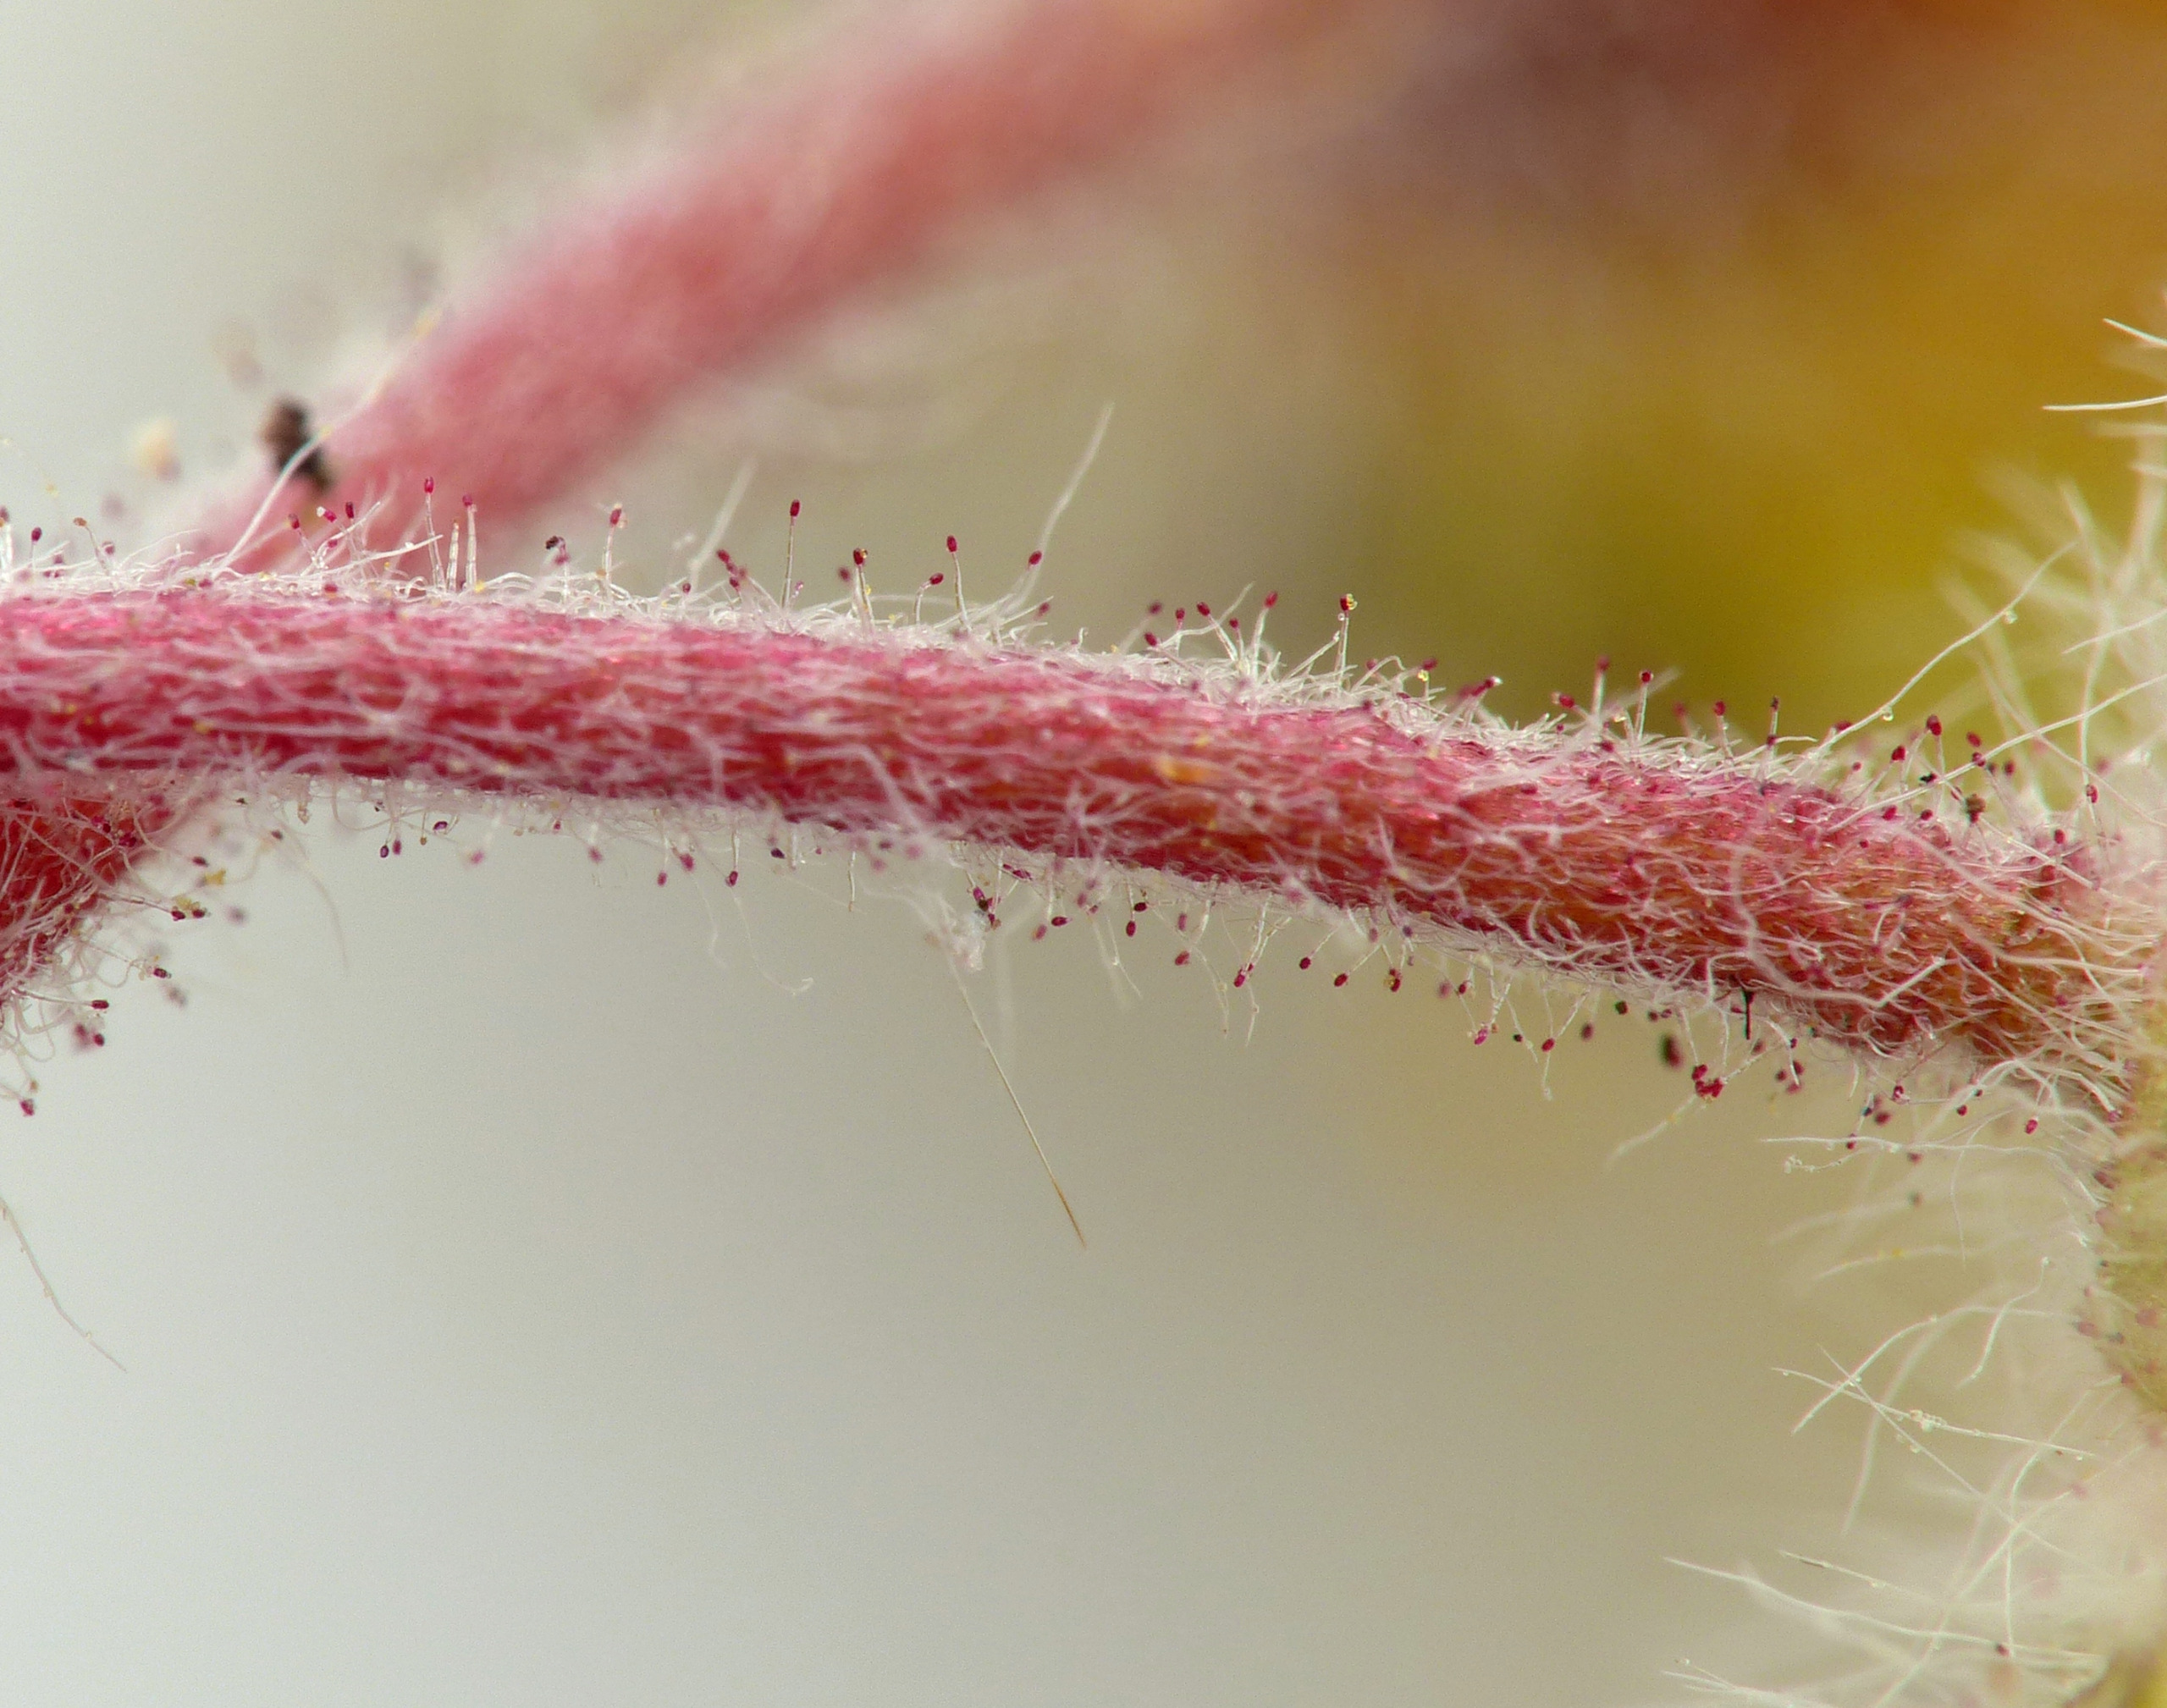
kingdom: Plantae
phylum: Tracheophyta
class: Magnoliopsida
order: Rosales
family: Rosaceae
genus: Potentilla
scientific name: Potentilla heptaphylla
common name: Mat potentil
